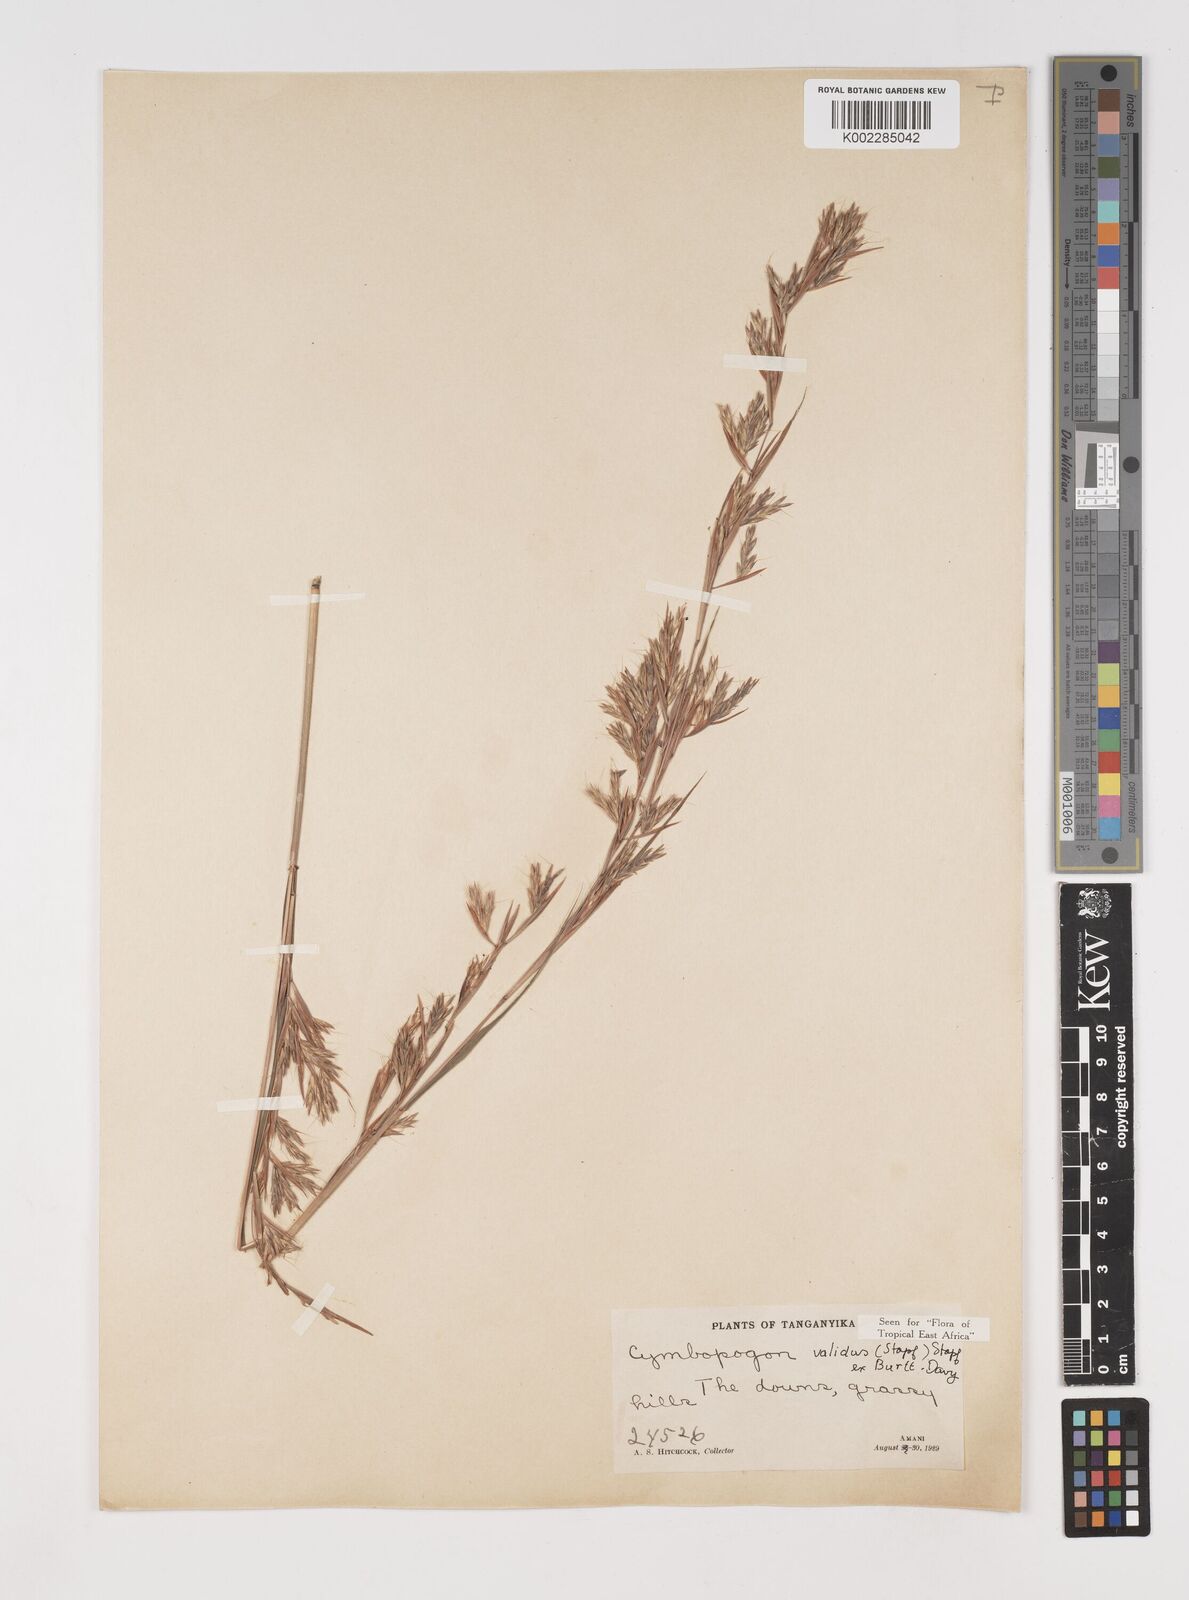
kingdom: Plantae
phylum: Tracheophyta
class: Liliopsida
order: Poales
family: Poaceae
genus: Cymbopogon
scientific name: Cymbopogon nardus
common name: Giant turpentine grass
